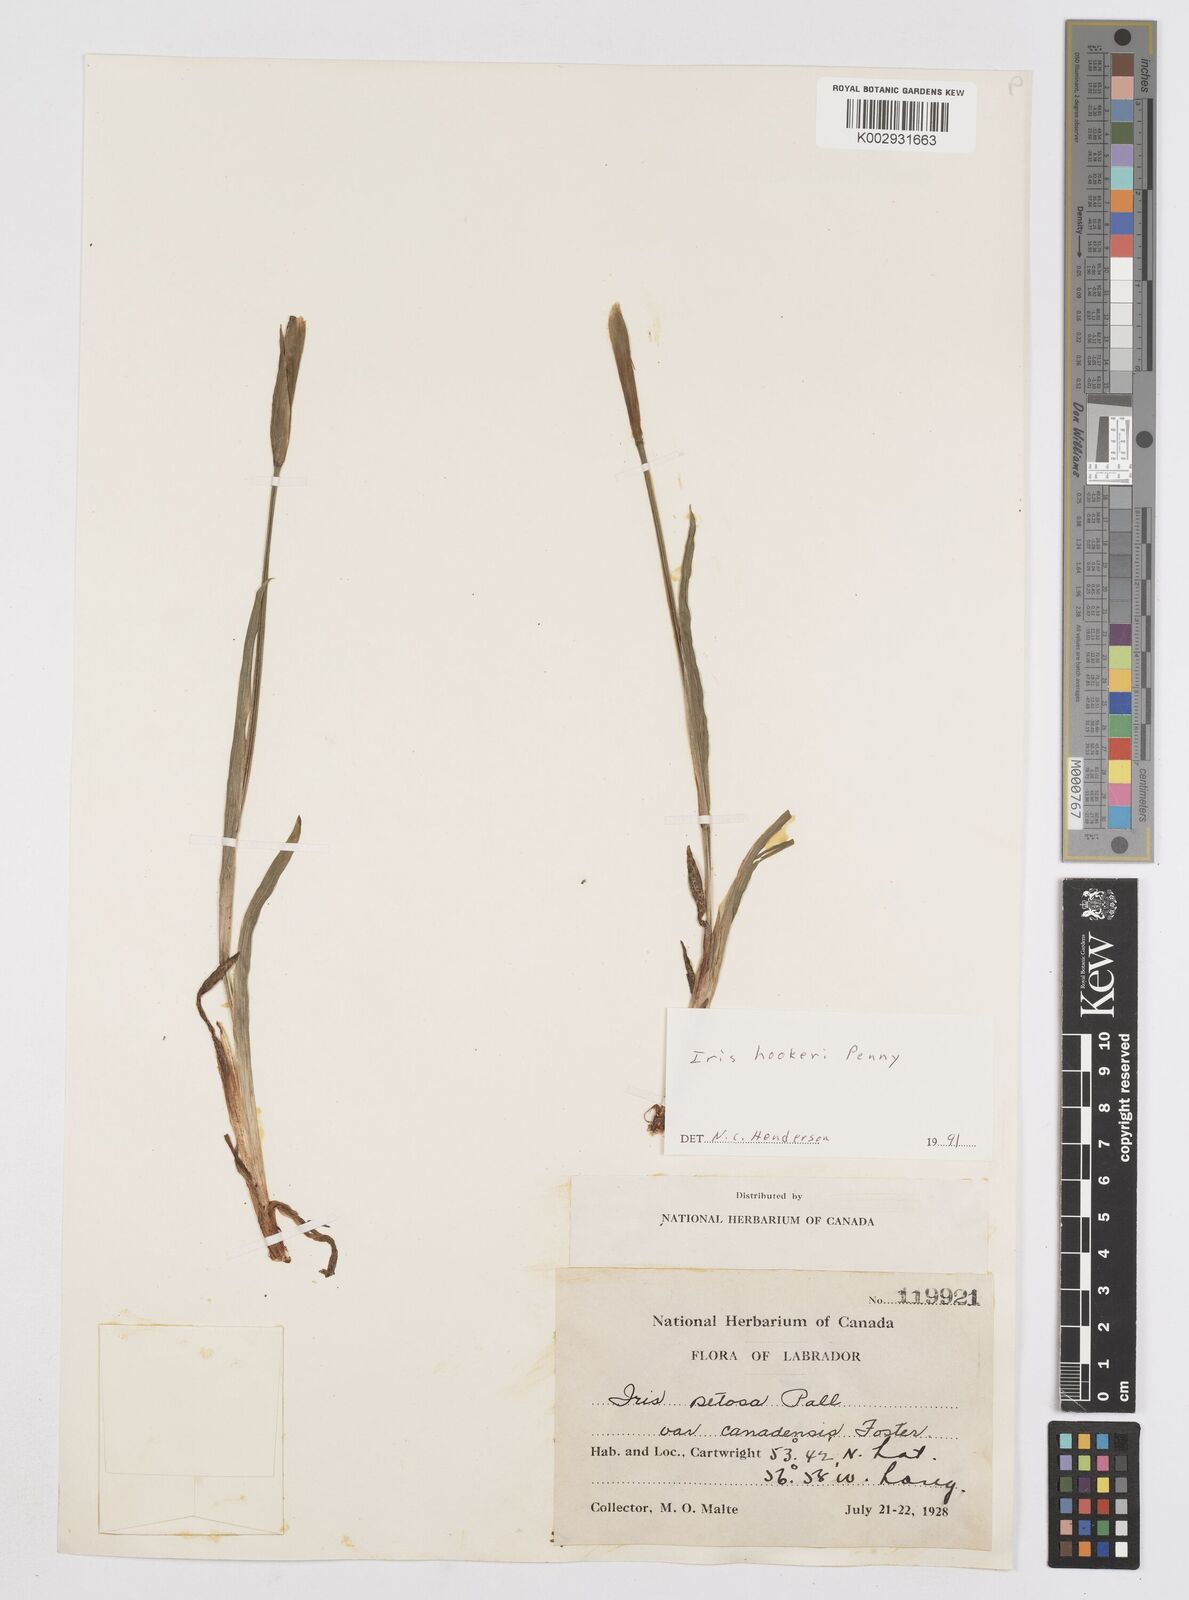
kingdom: Plantae
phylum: Tracheophyta
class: Liliopsida
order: Asparagales
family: Iridaceae
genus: Iris
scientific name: Iris setosa
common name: Arctic blue flag
